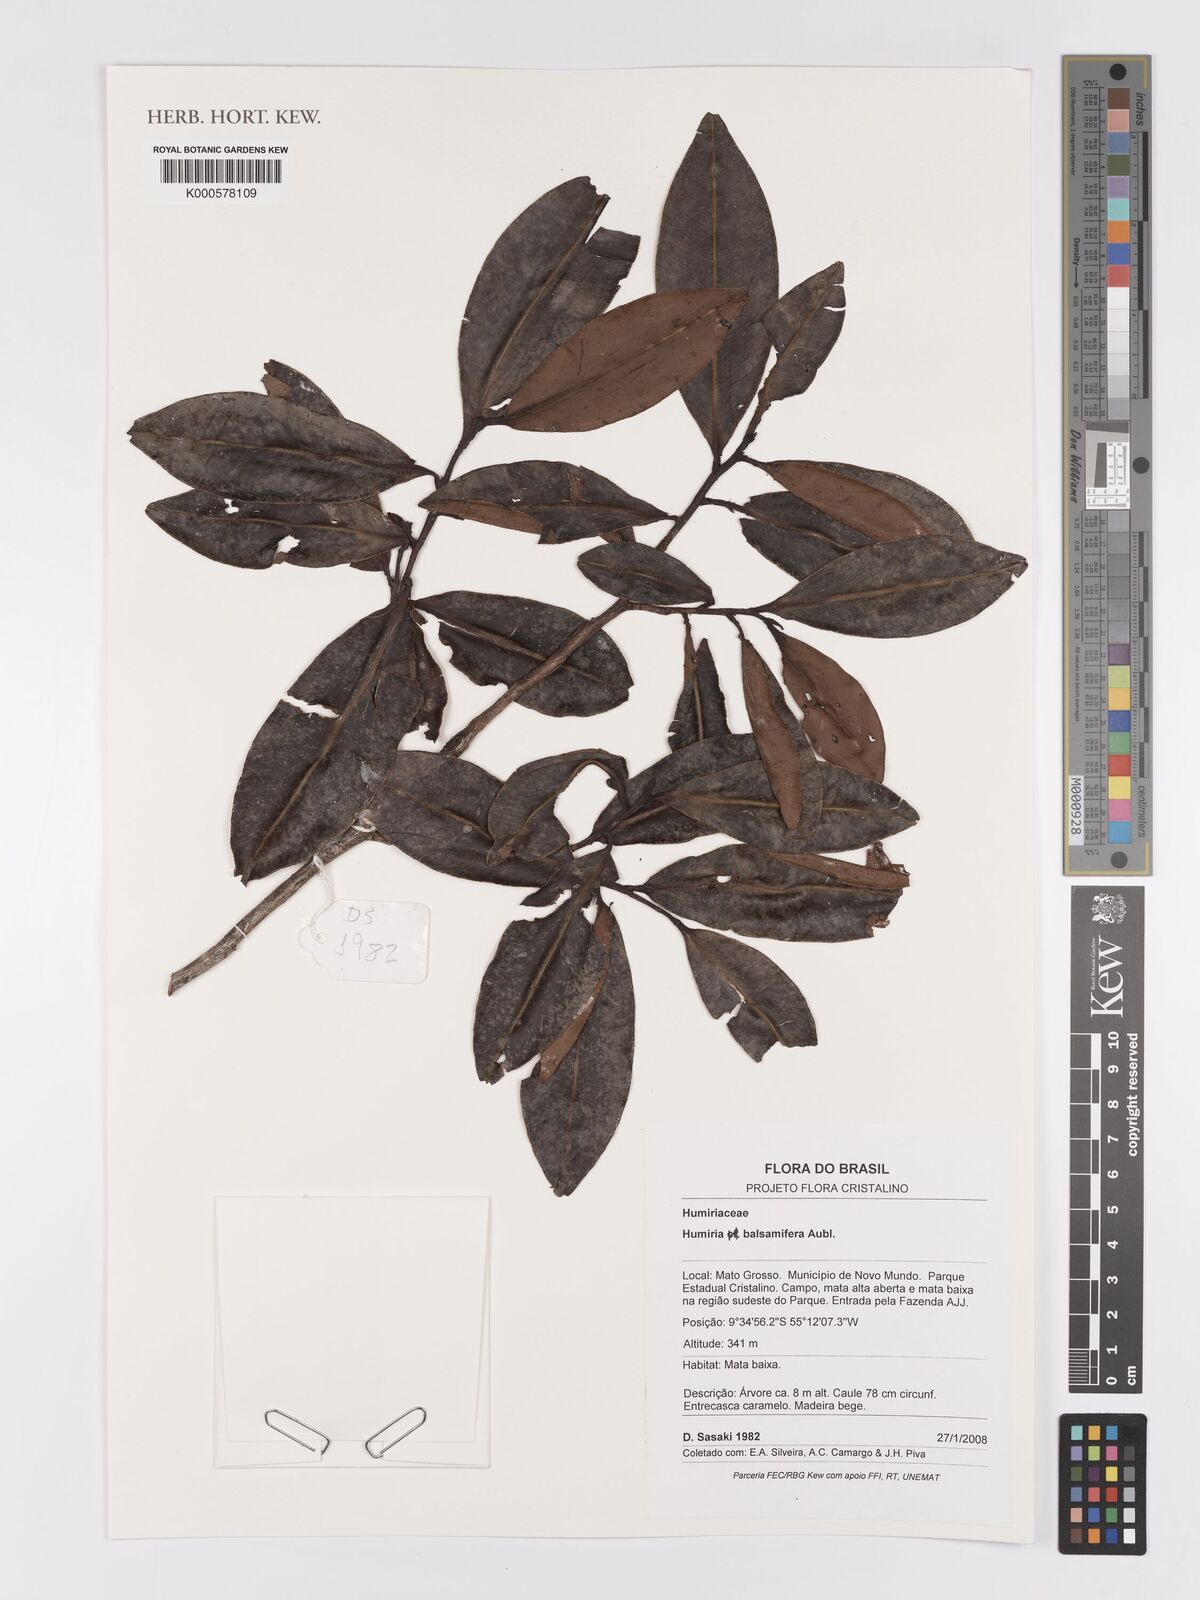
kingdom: Plantae
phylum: Tracheophyta
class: Magnoliopsida
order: Malpighiales
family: Humiriaceae
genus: Humiria
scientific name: Humiria balsamifera
